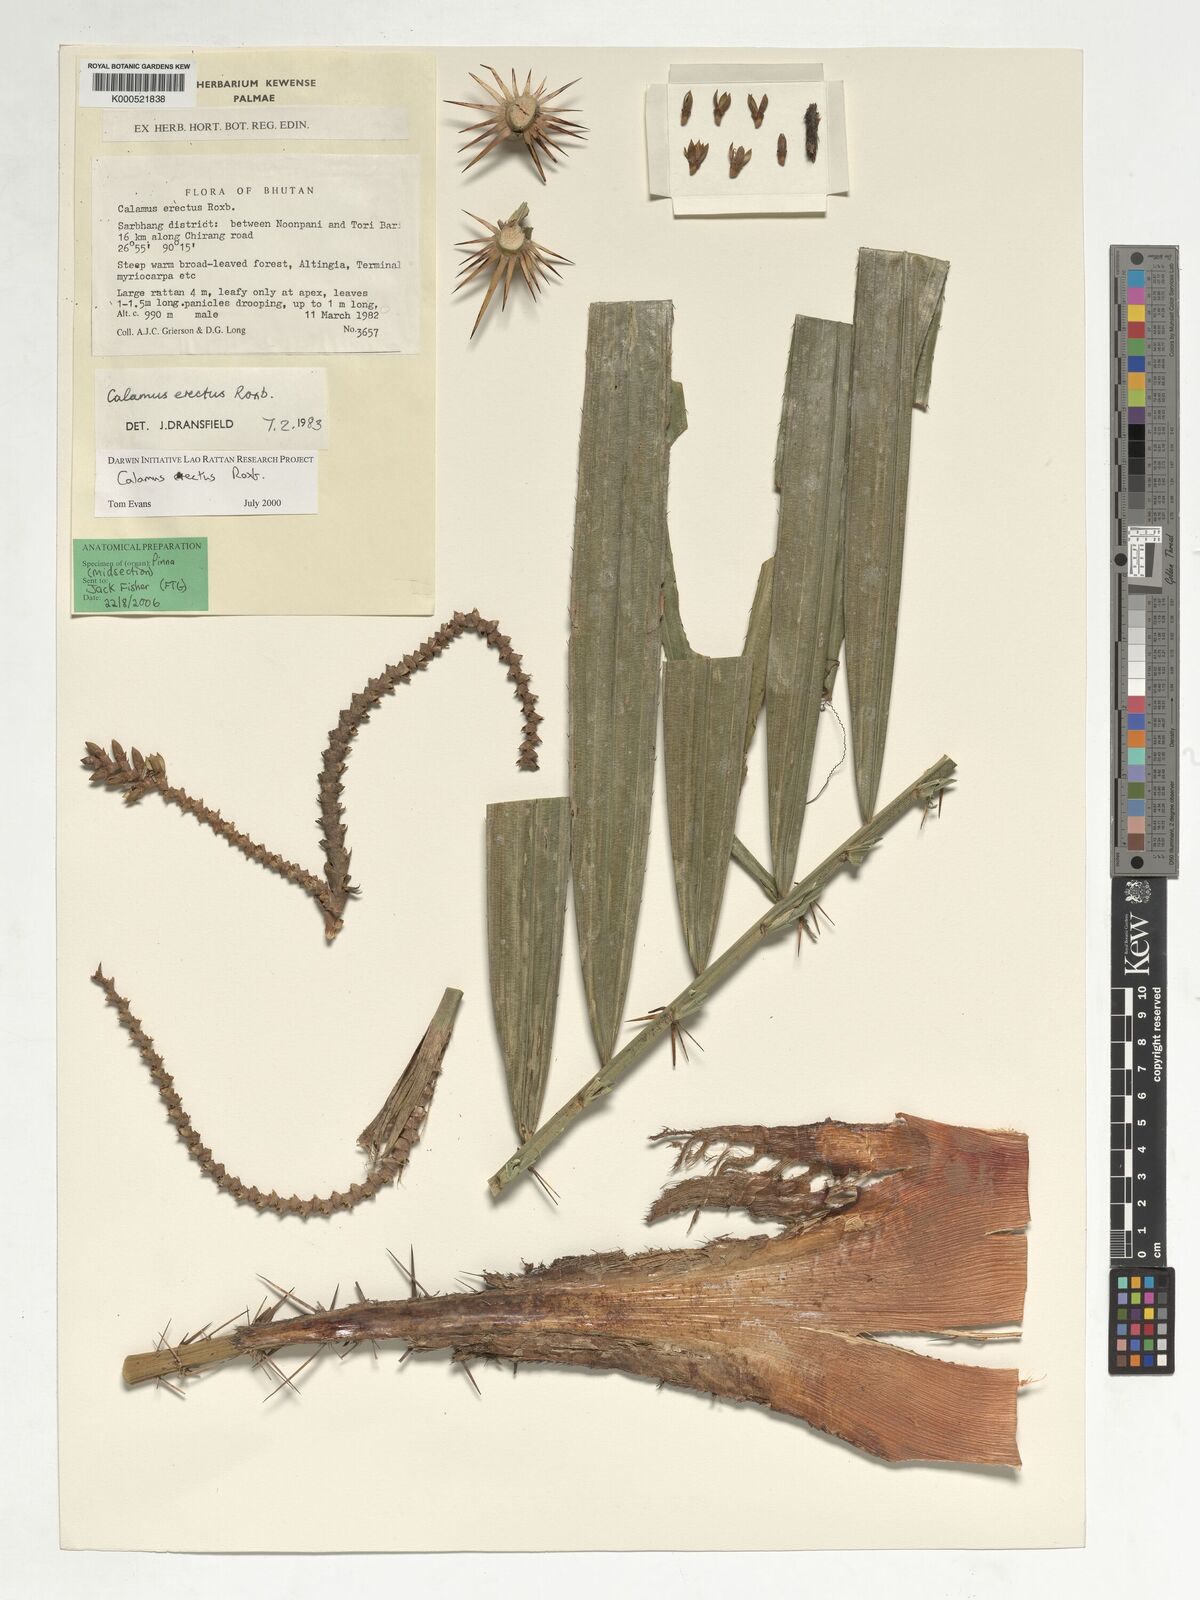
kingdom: Plantae
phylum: Tracheophyta
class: Liliopsida
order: Arecales
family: Arecaceae
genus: Calamus
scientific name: Calamus erectus
